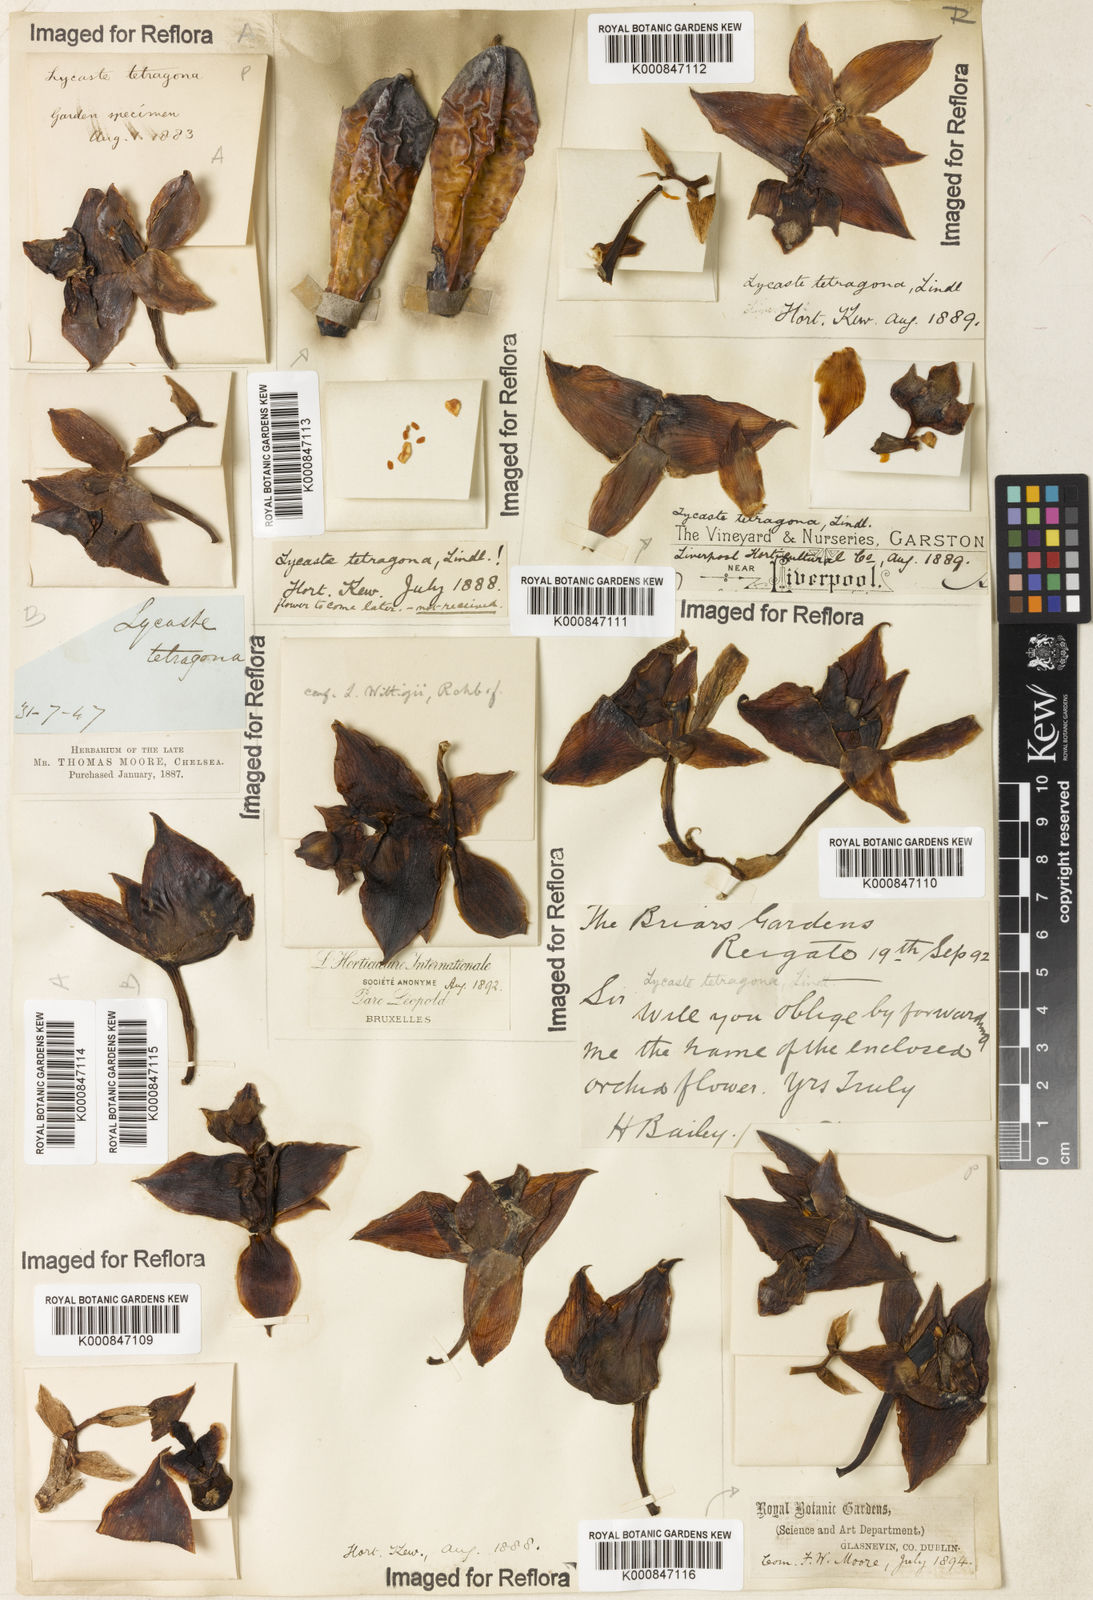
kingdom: Plantae
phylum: Tracheophyta
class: Liliopsida
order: Asparagales
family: Orchidaceae
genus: Bifrenaria
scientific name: Bifrenaria tetragona
